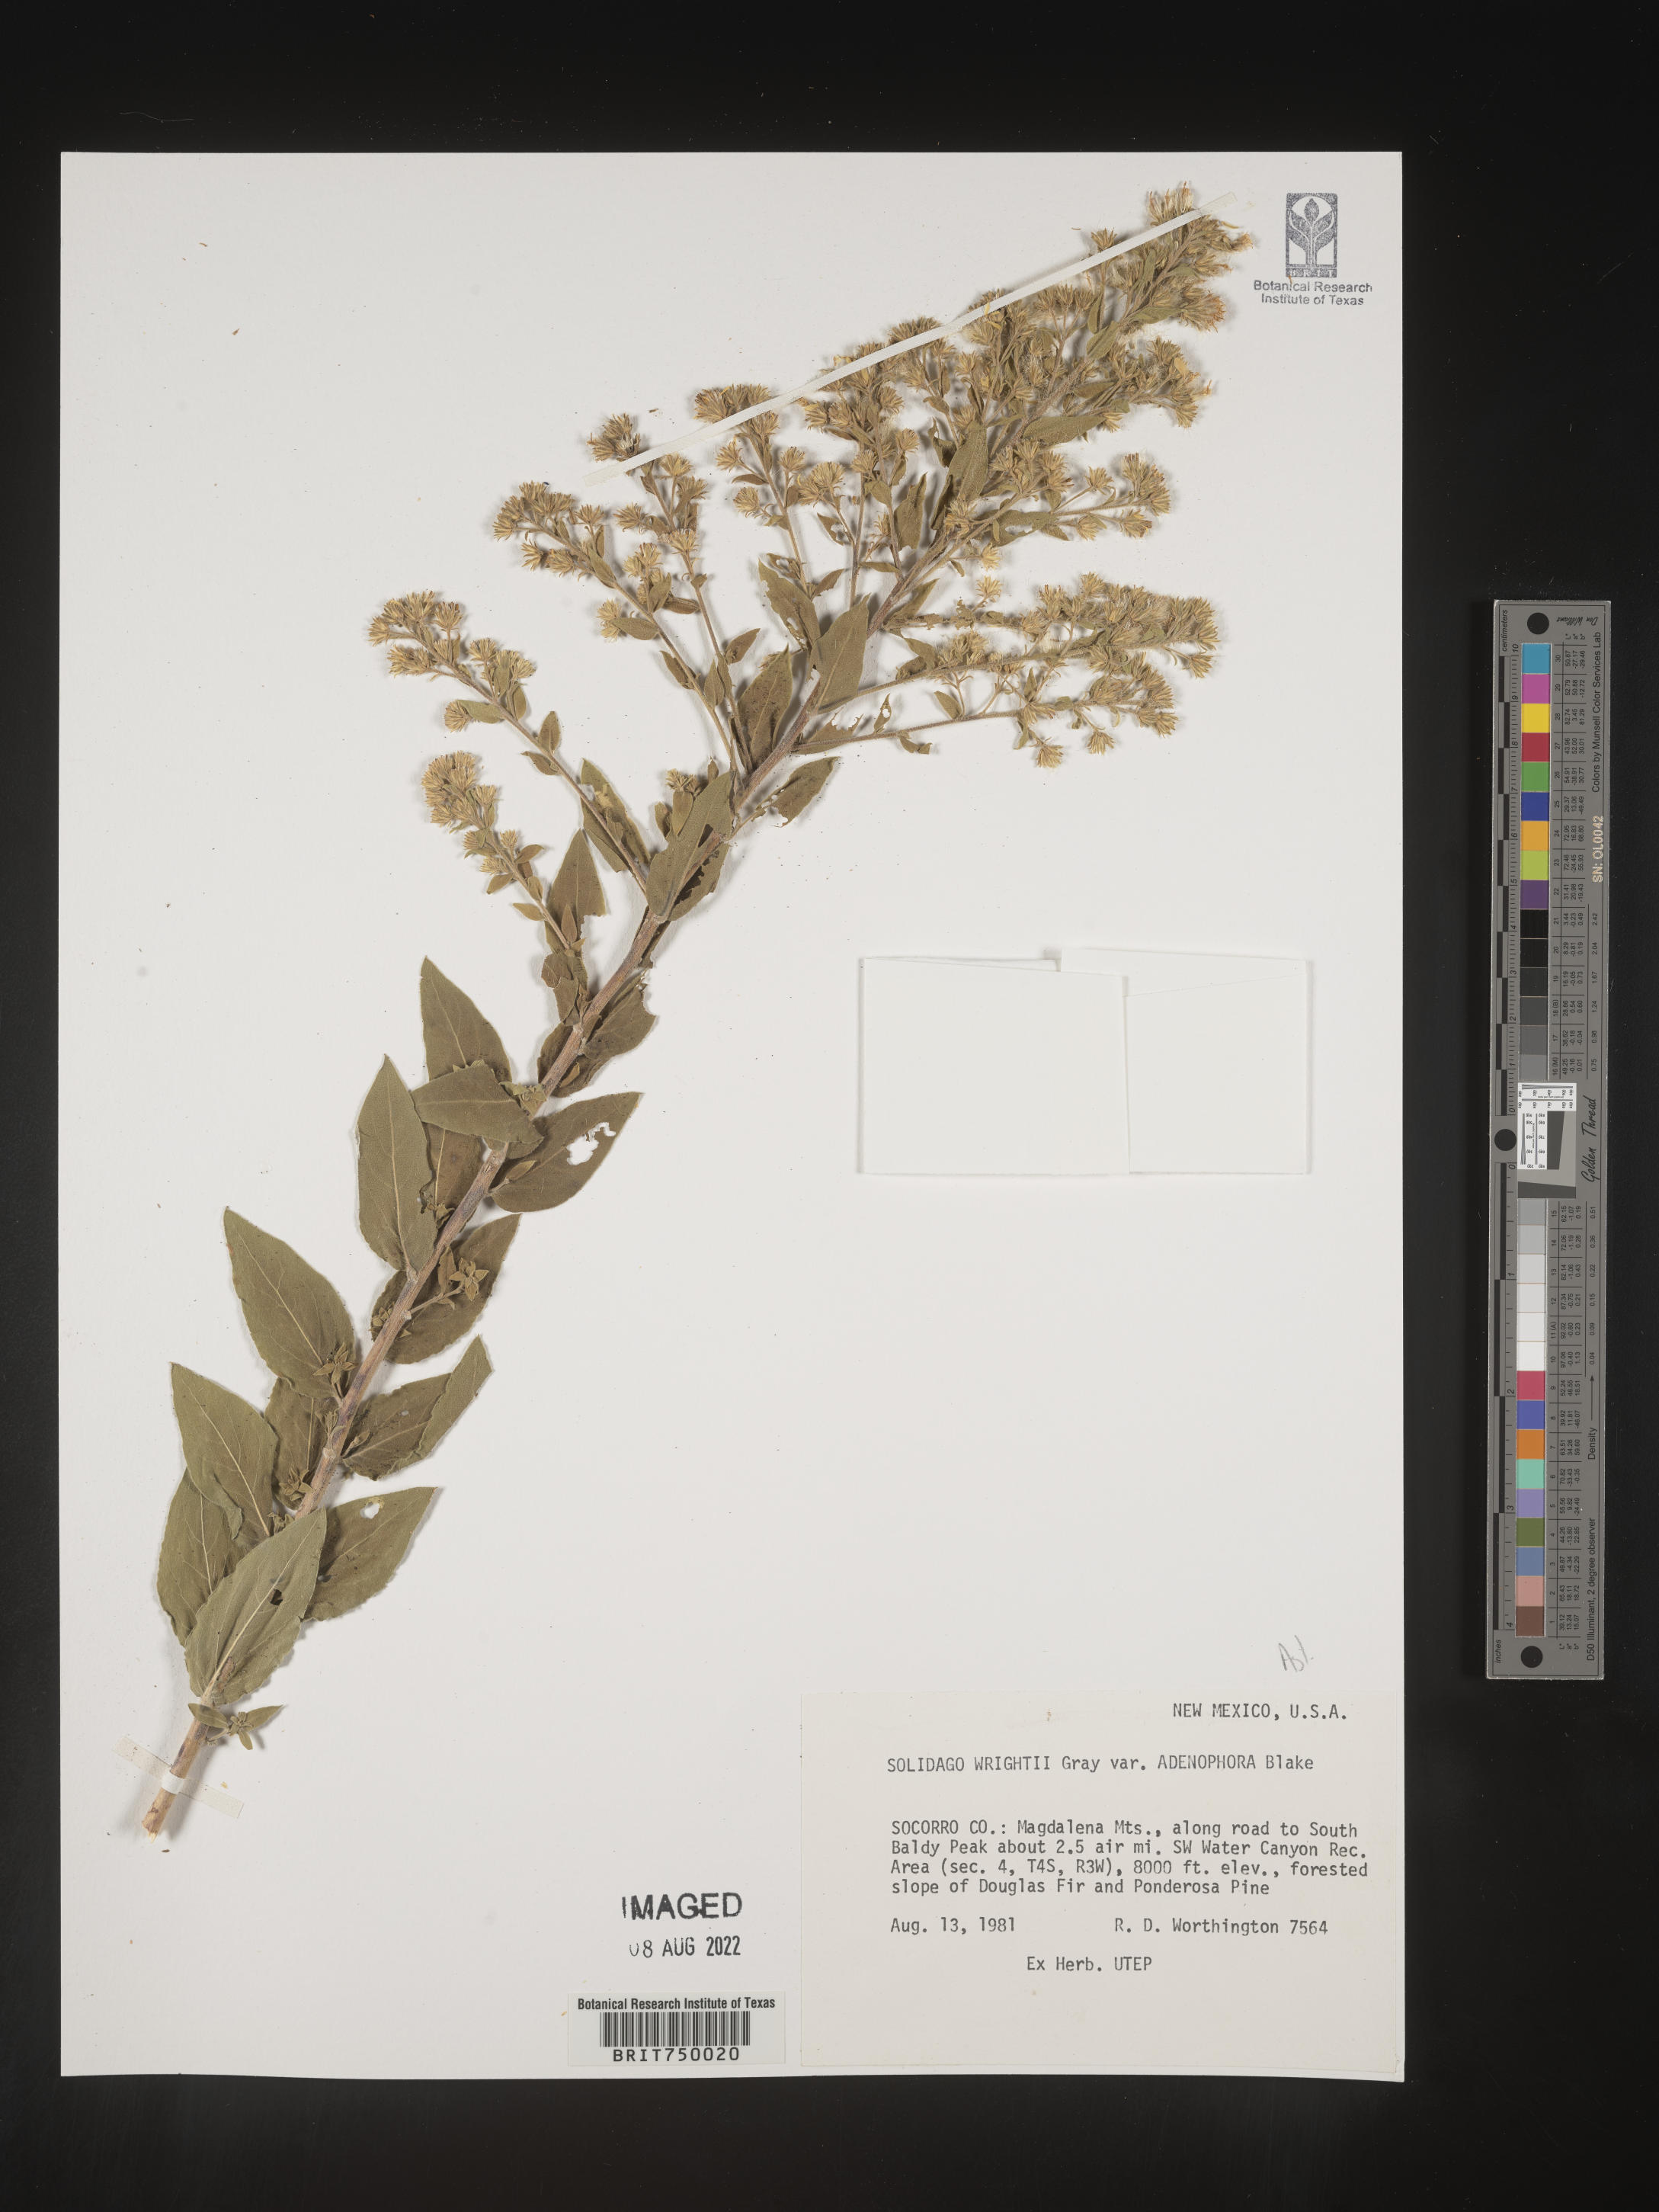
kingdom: Plantae
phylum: Tracheophyta
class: Magnoliopsida
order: Asterales
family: Asteraceae
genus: Solidago
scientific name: Solidago wrightii
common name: Wright's goldenrod
